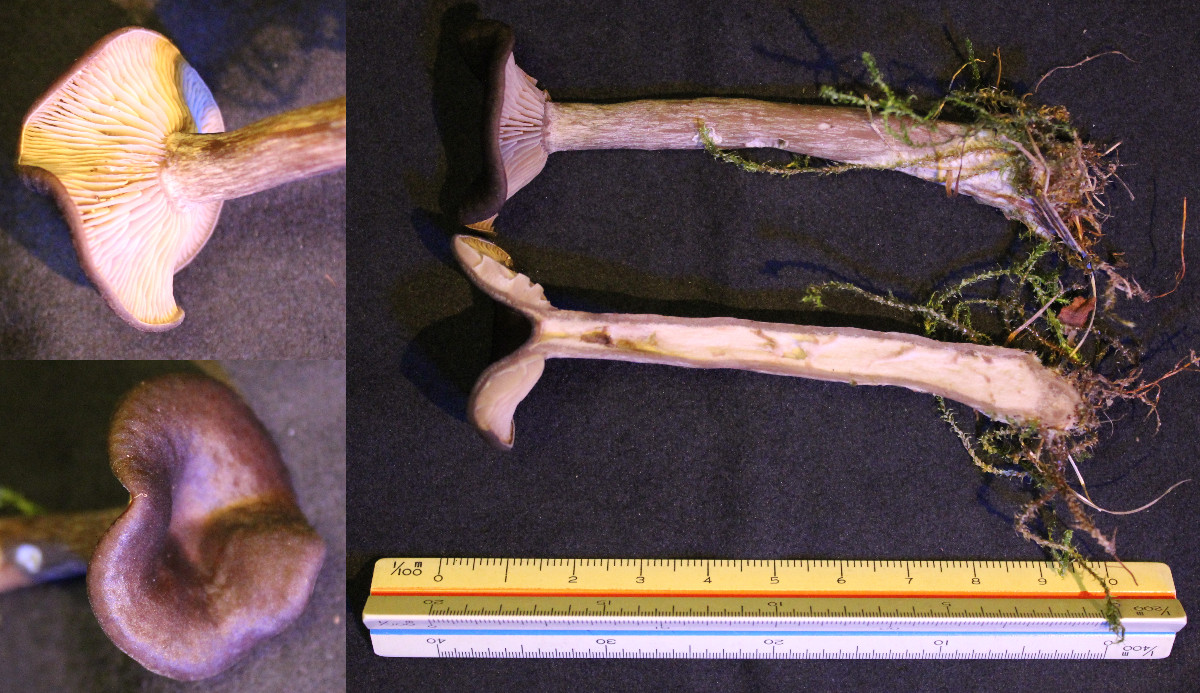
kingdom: Fungi
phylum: Basidiomycota
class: Agaricomycetes
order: Agaricales
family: Pseudoclitocybaceae
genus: Pseudoclitocybe
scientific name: Pseudoclitocybe cyathiformis
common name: almindelig bægertragthat
